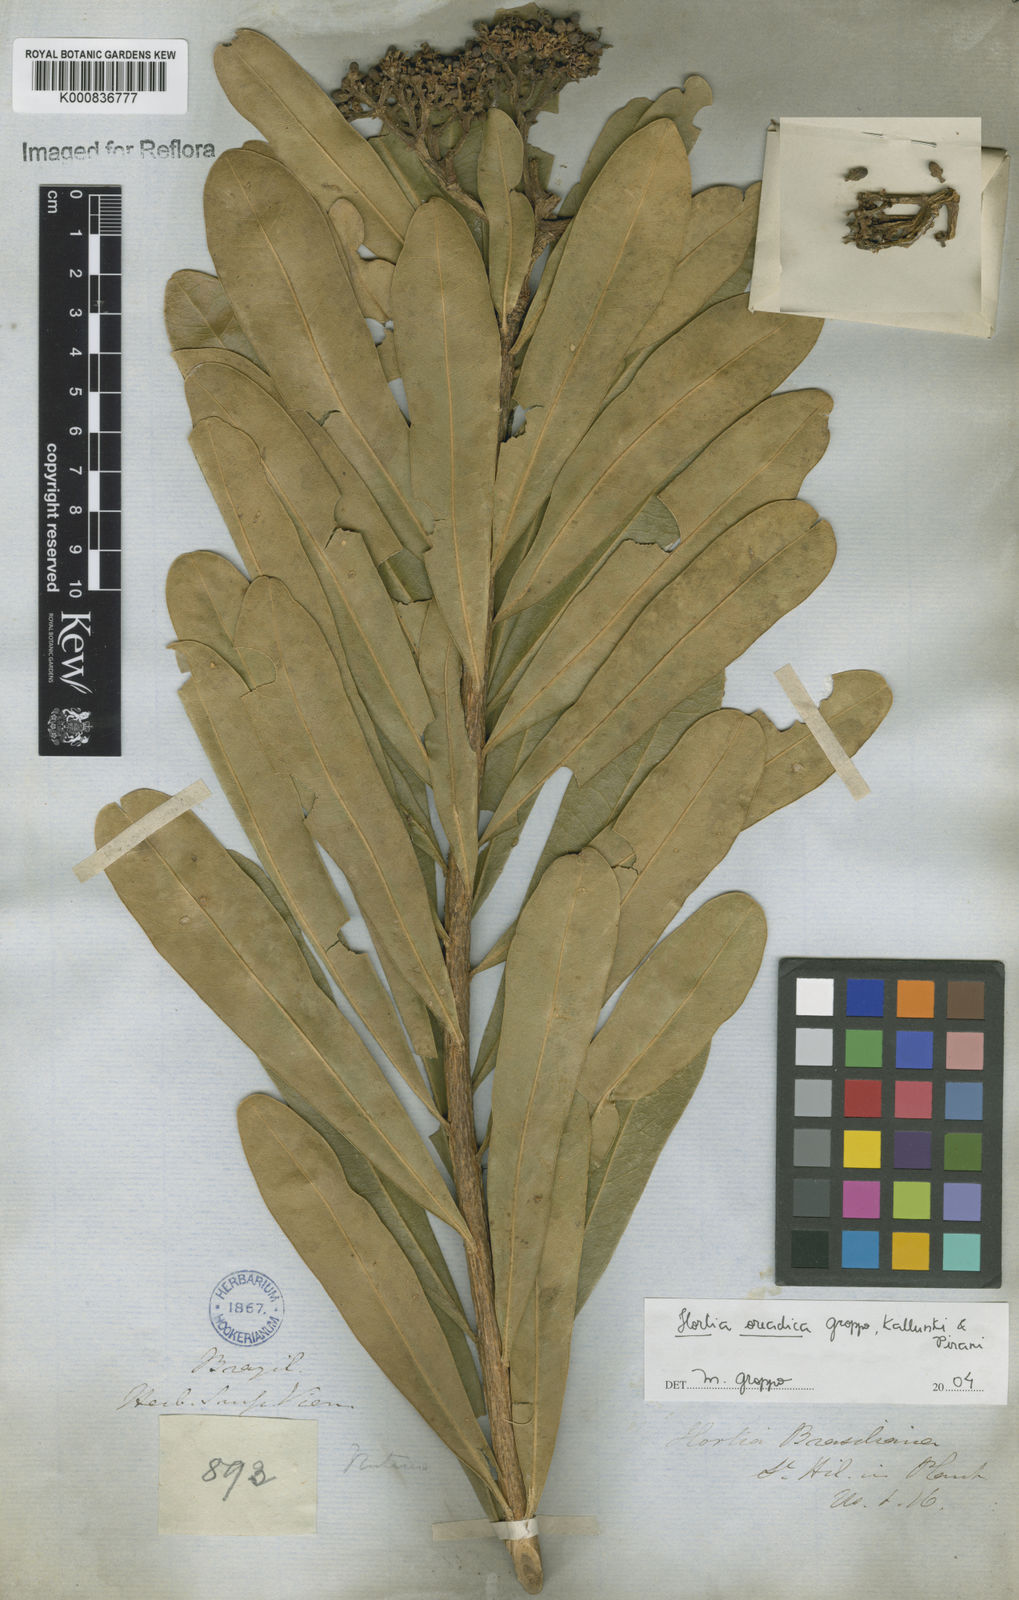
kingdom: Plantae
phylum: Tracheophyta
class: Magnoliopsida
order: Sapindales
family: Rutaceae
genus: Hortia
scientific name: Hortia brasiliana
